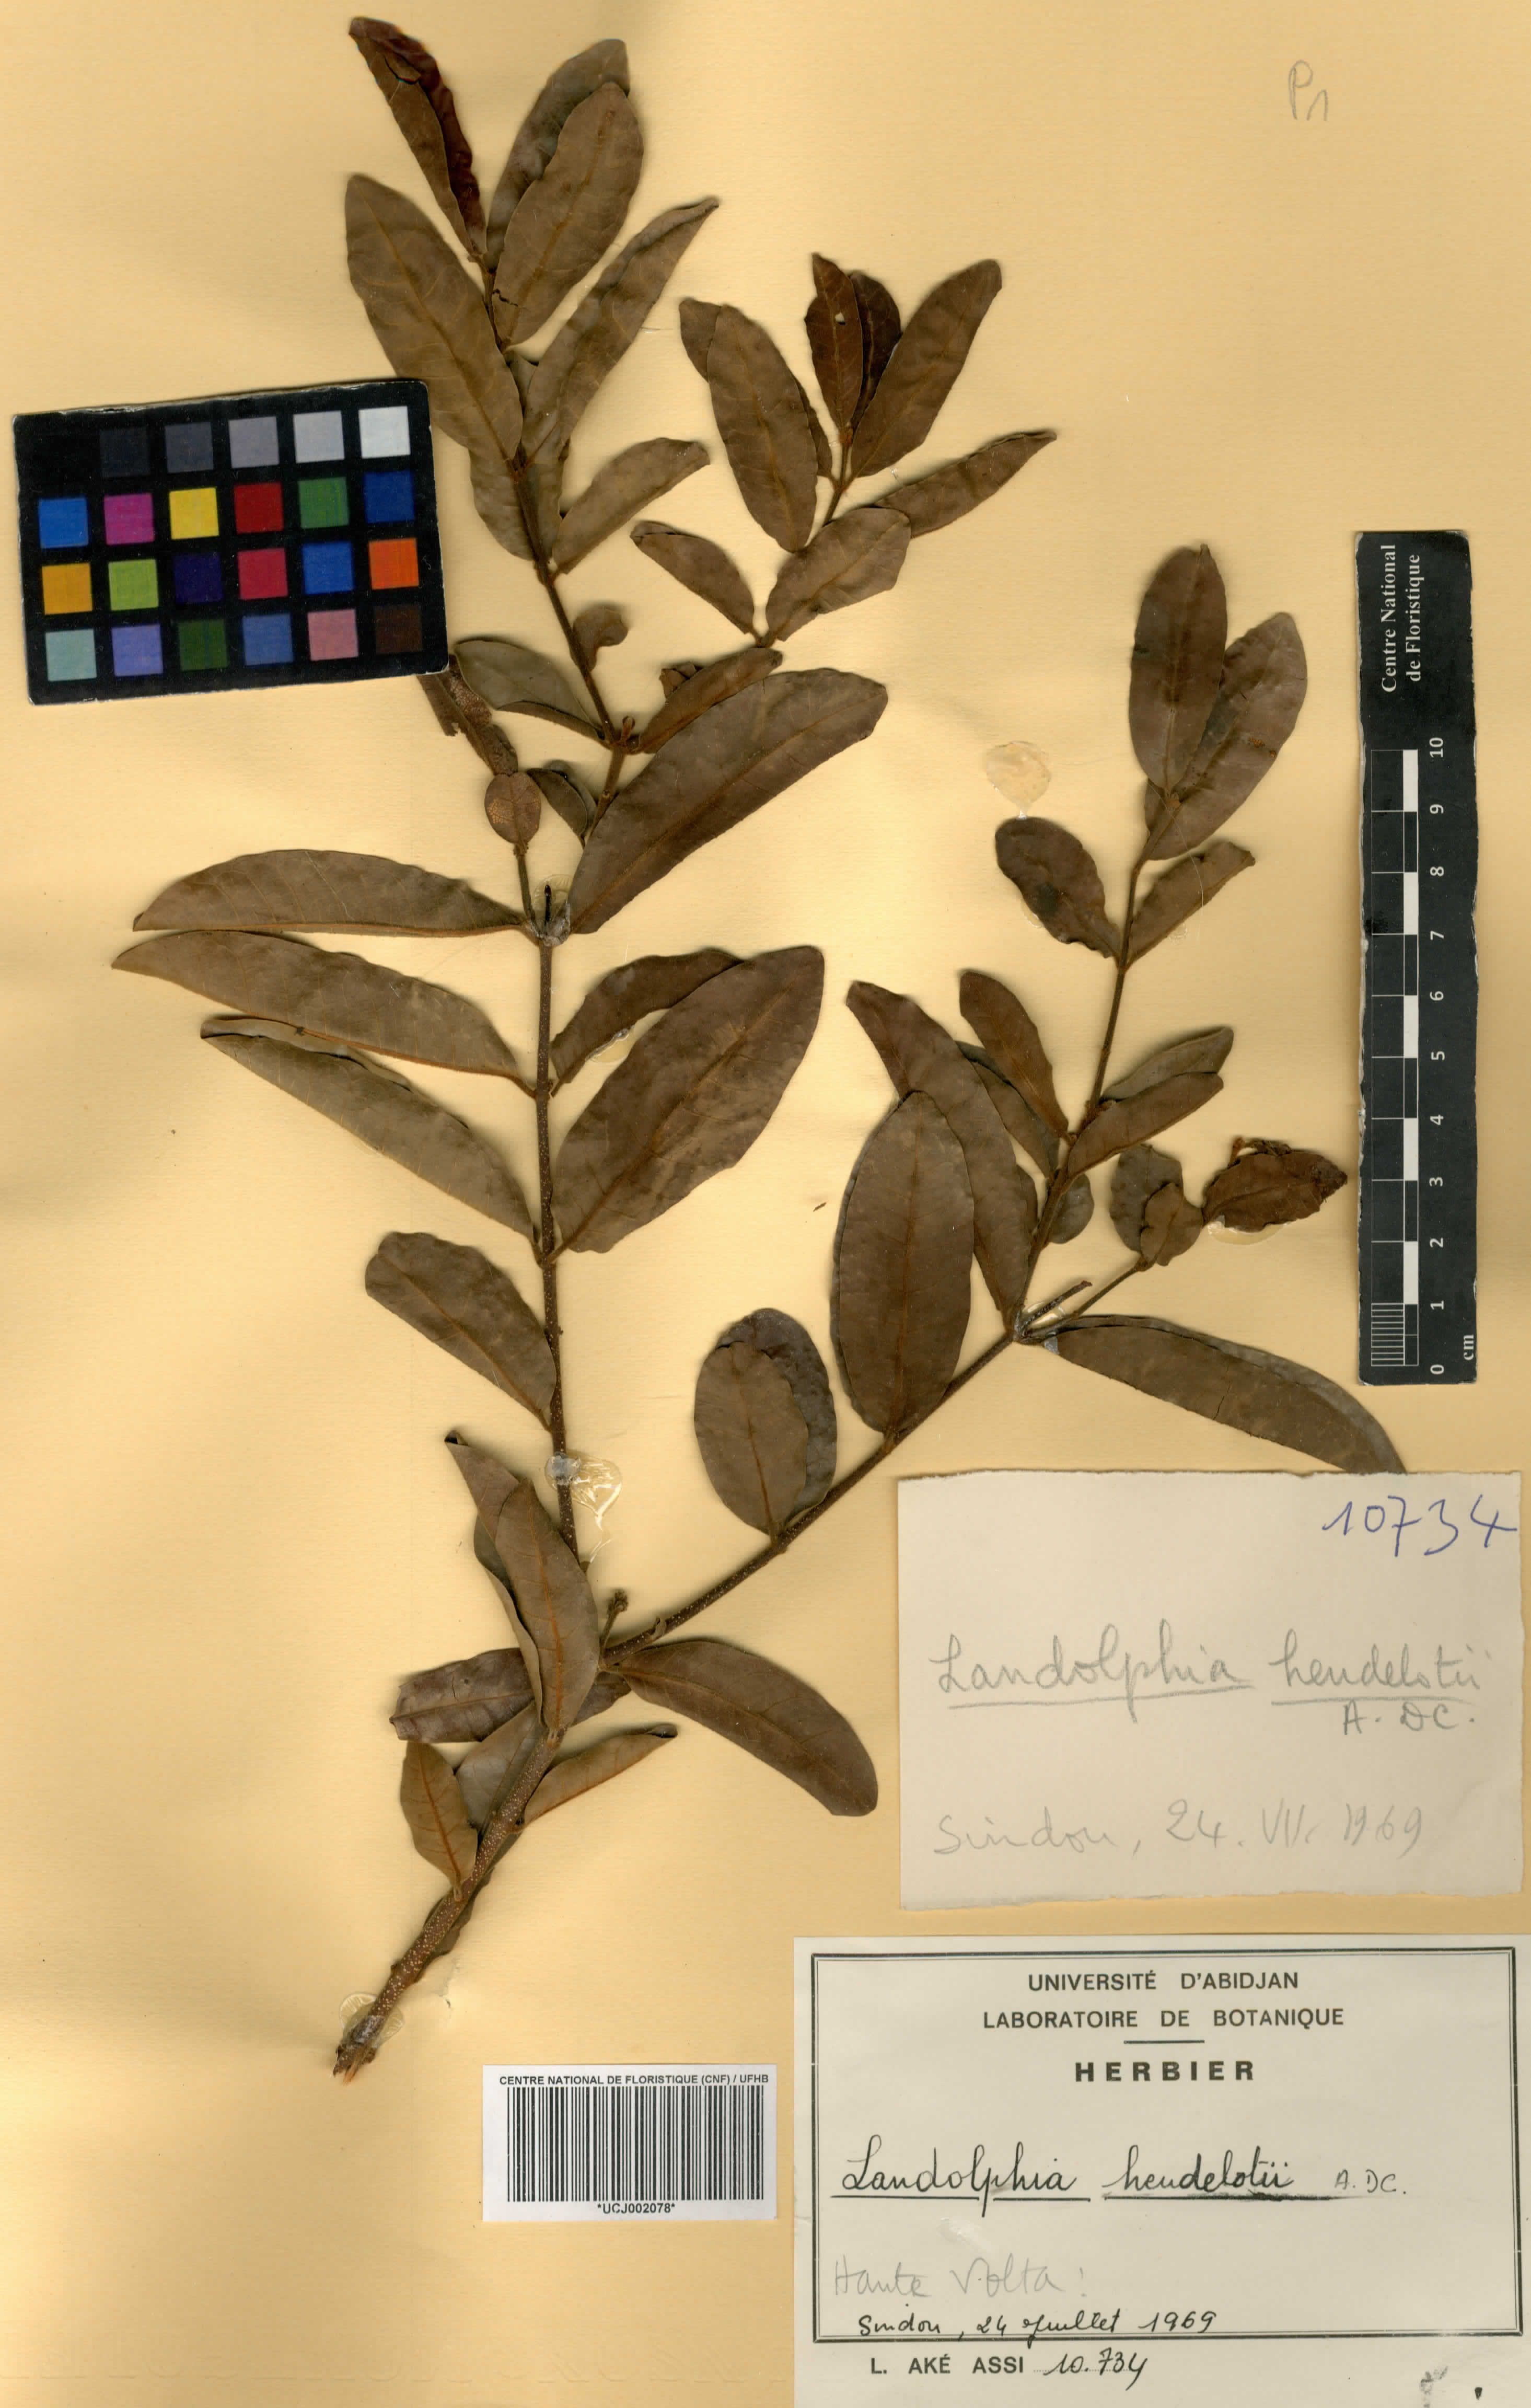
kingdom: Plantae
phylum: Tracheophyta
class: Magnoliopsida
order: Gentianales
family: Apocynaceae
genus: Landolphia
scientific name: Landolphia heudelotii
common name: Landolphia-rubber
